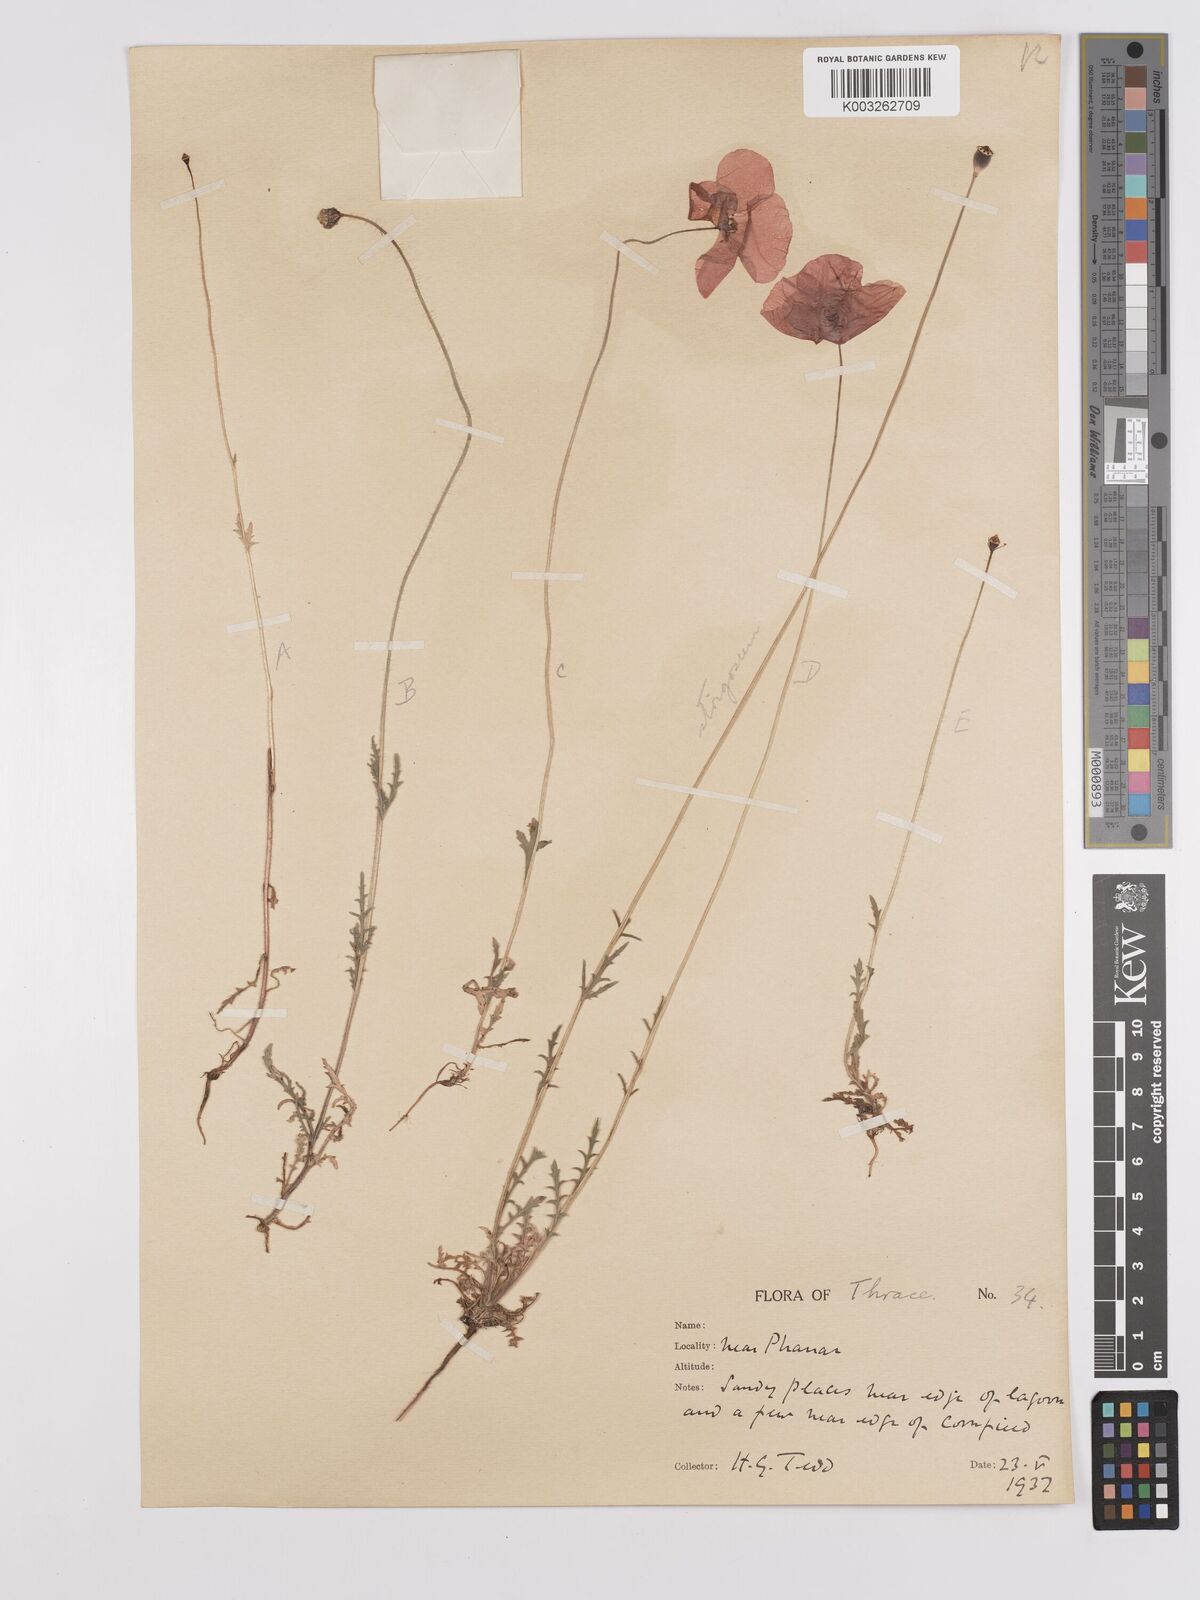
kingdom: Plantae
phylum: Tracheophyta
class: Magnoliopsida
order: Ranunculales
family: Papaveraceae
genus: Papaver
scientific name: Papaver
